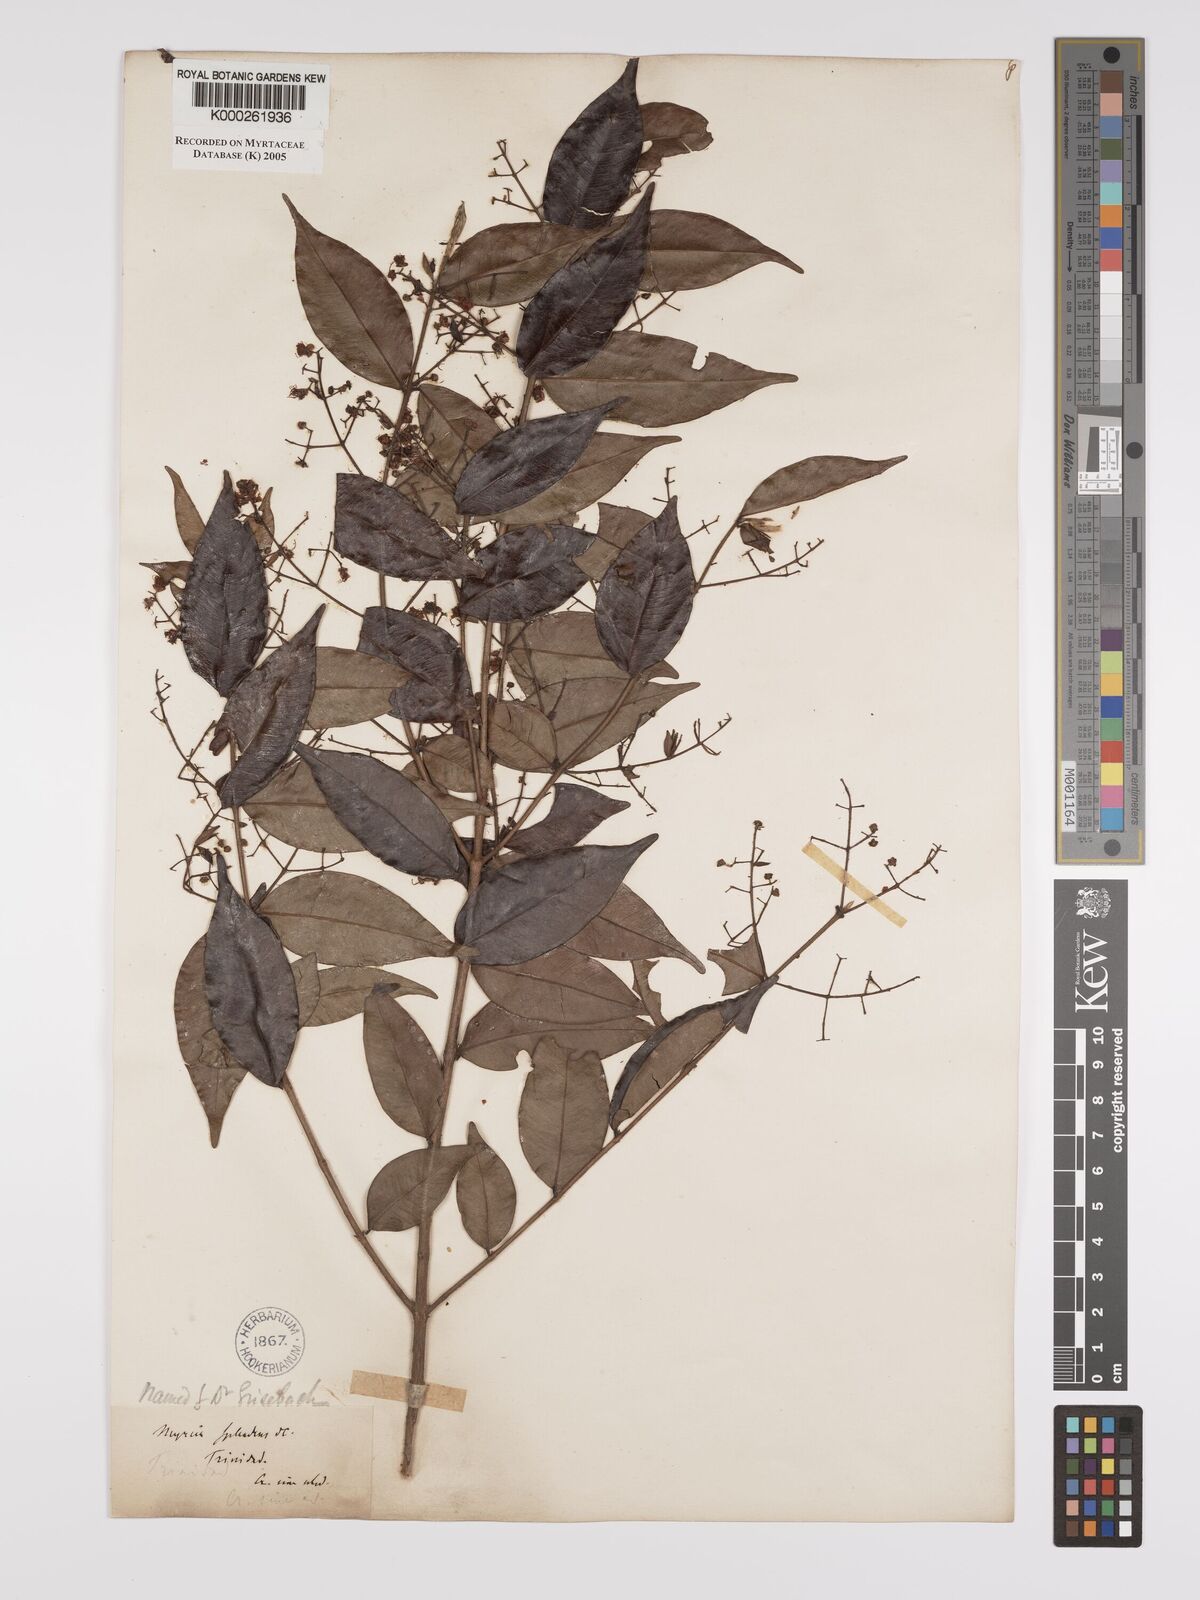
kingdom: Plantae
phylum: Tracheophyta
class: Magnoliopsida
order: Myrtales
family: Myrtaceae
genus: Myrcia
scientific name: Myrcia splendens
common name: Surinam cherry
